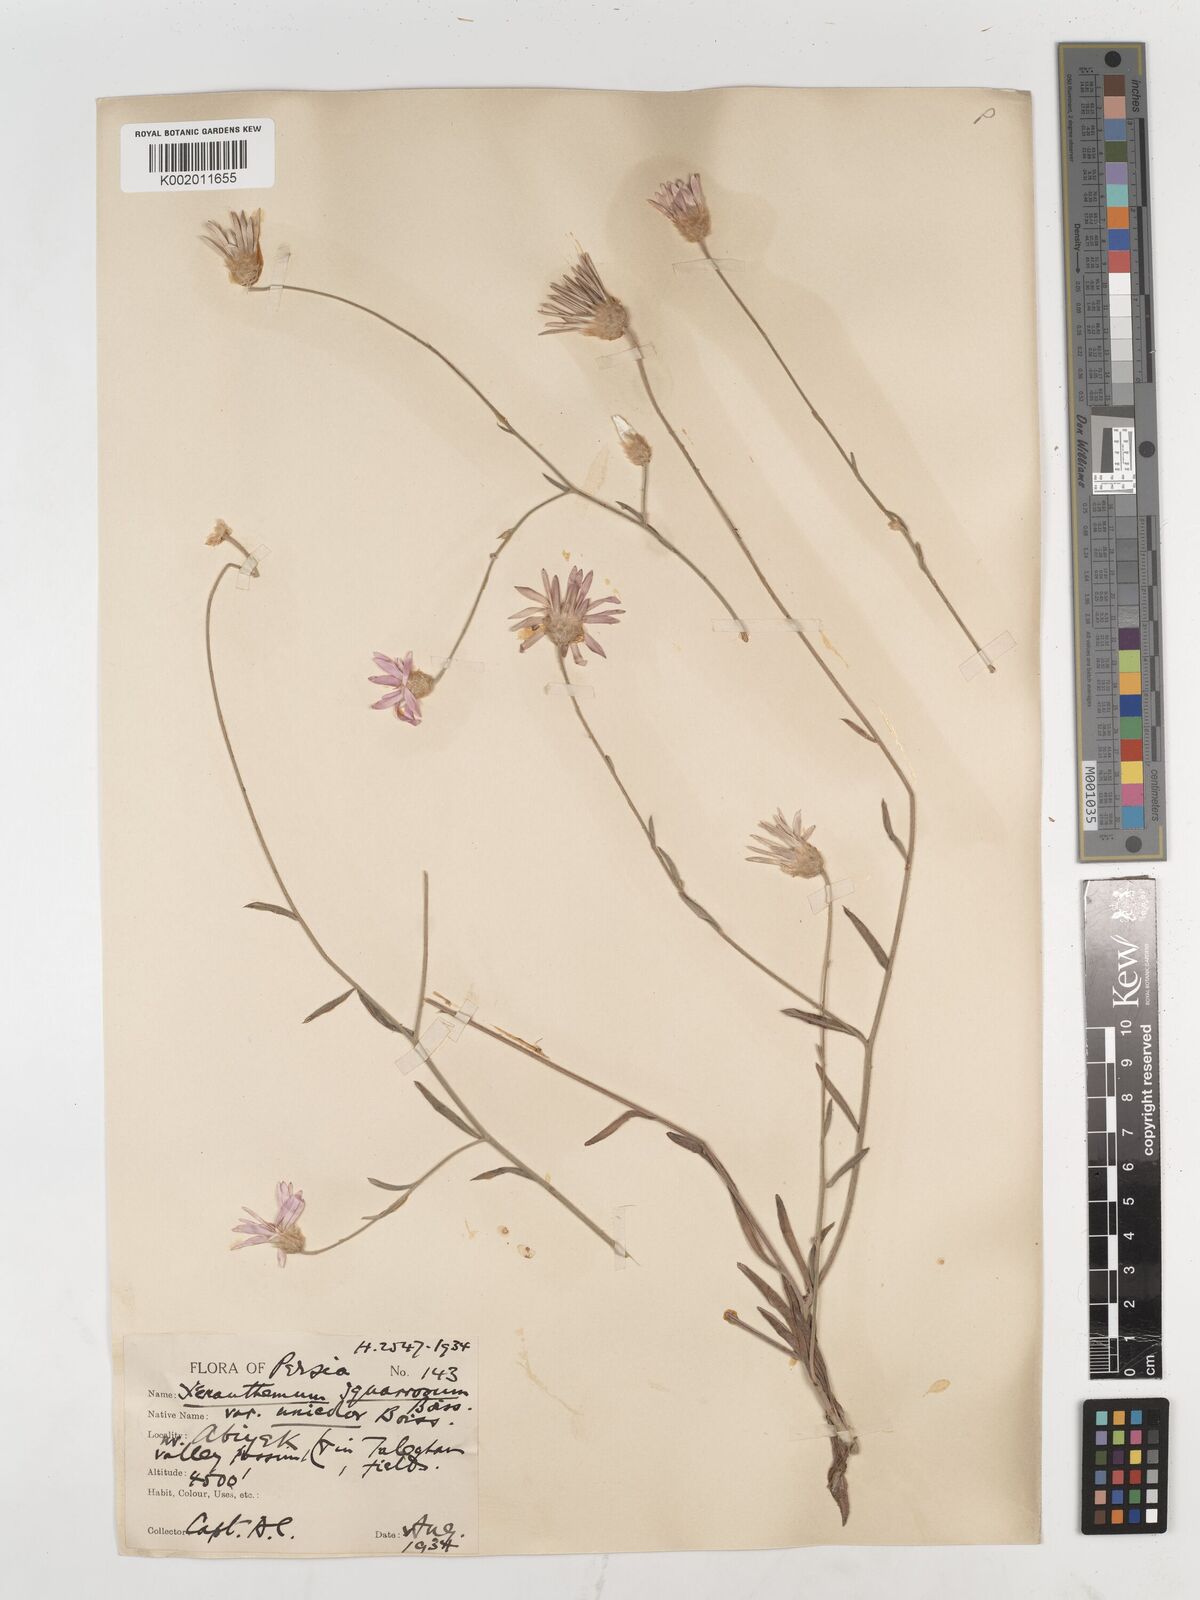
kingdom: Plantae
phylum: Tracheophyta
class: Magnoliopsida
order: Asterales
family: Asteraceae
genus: Xeranthemum
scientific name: Xeranthemum squarrosum
